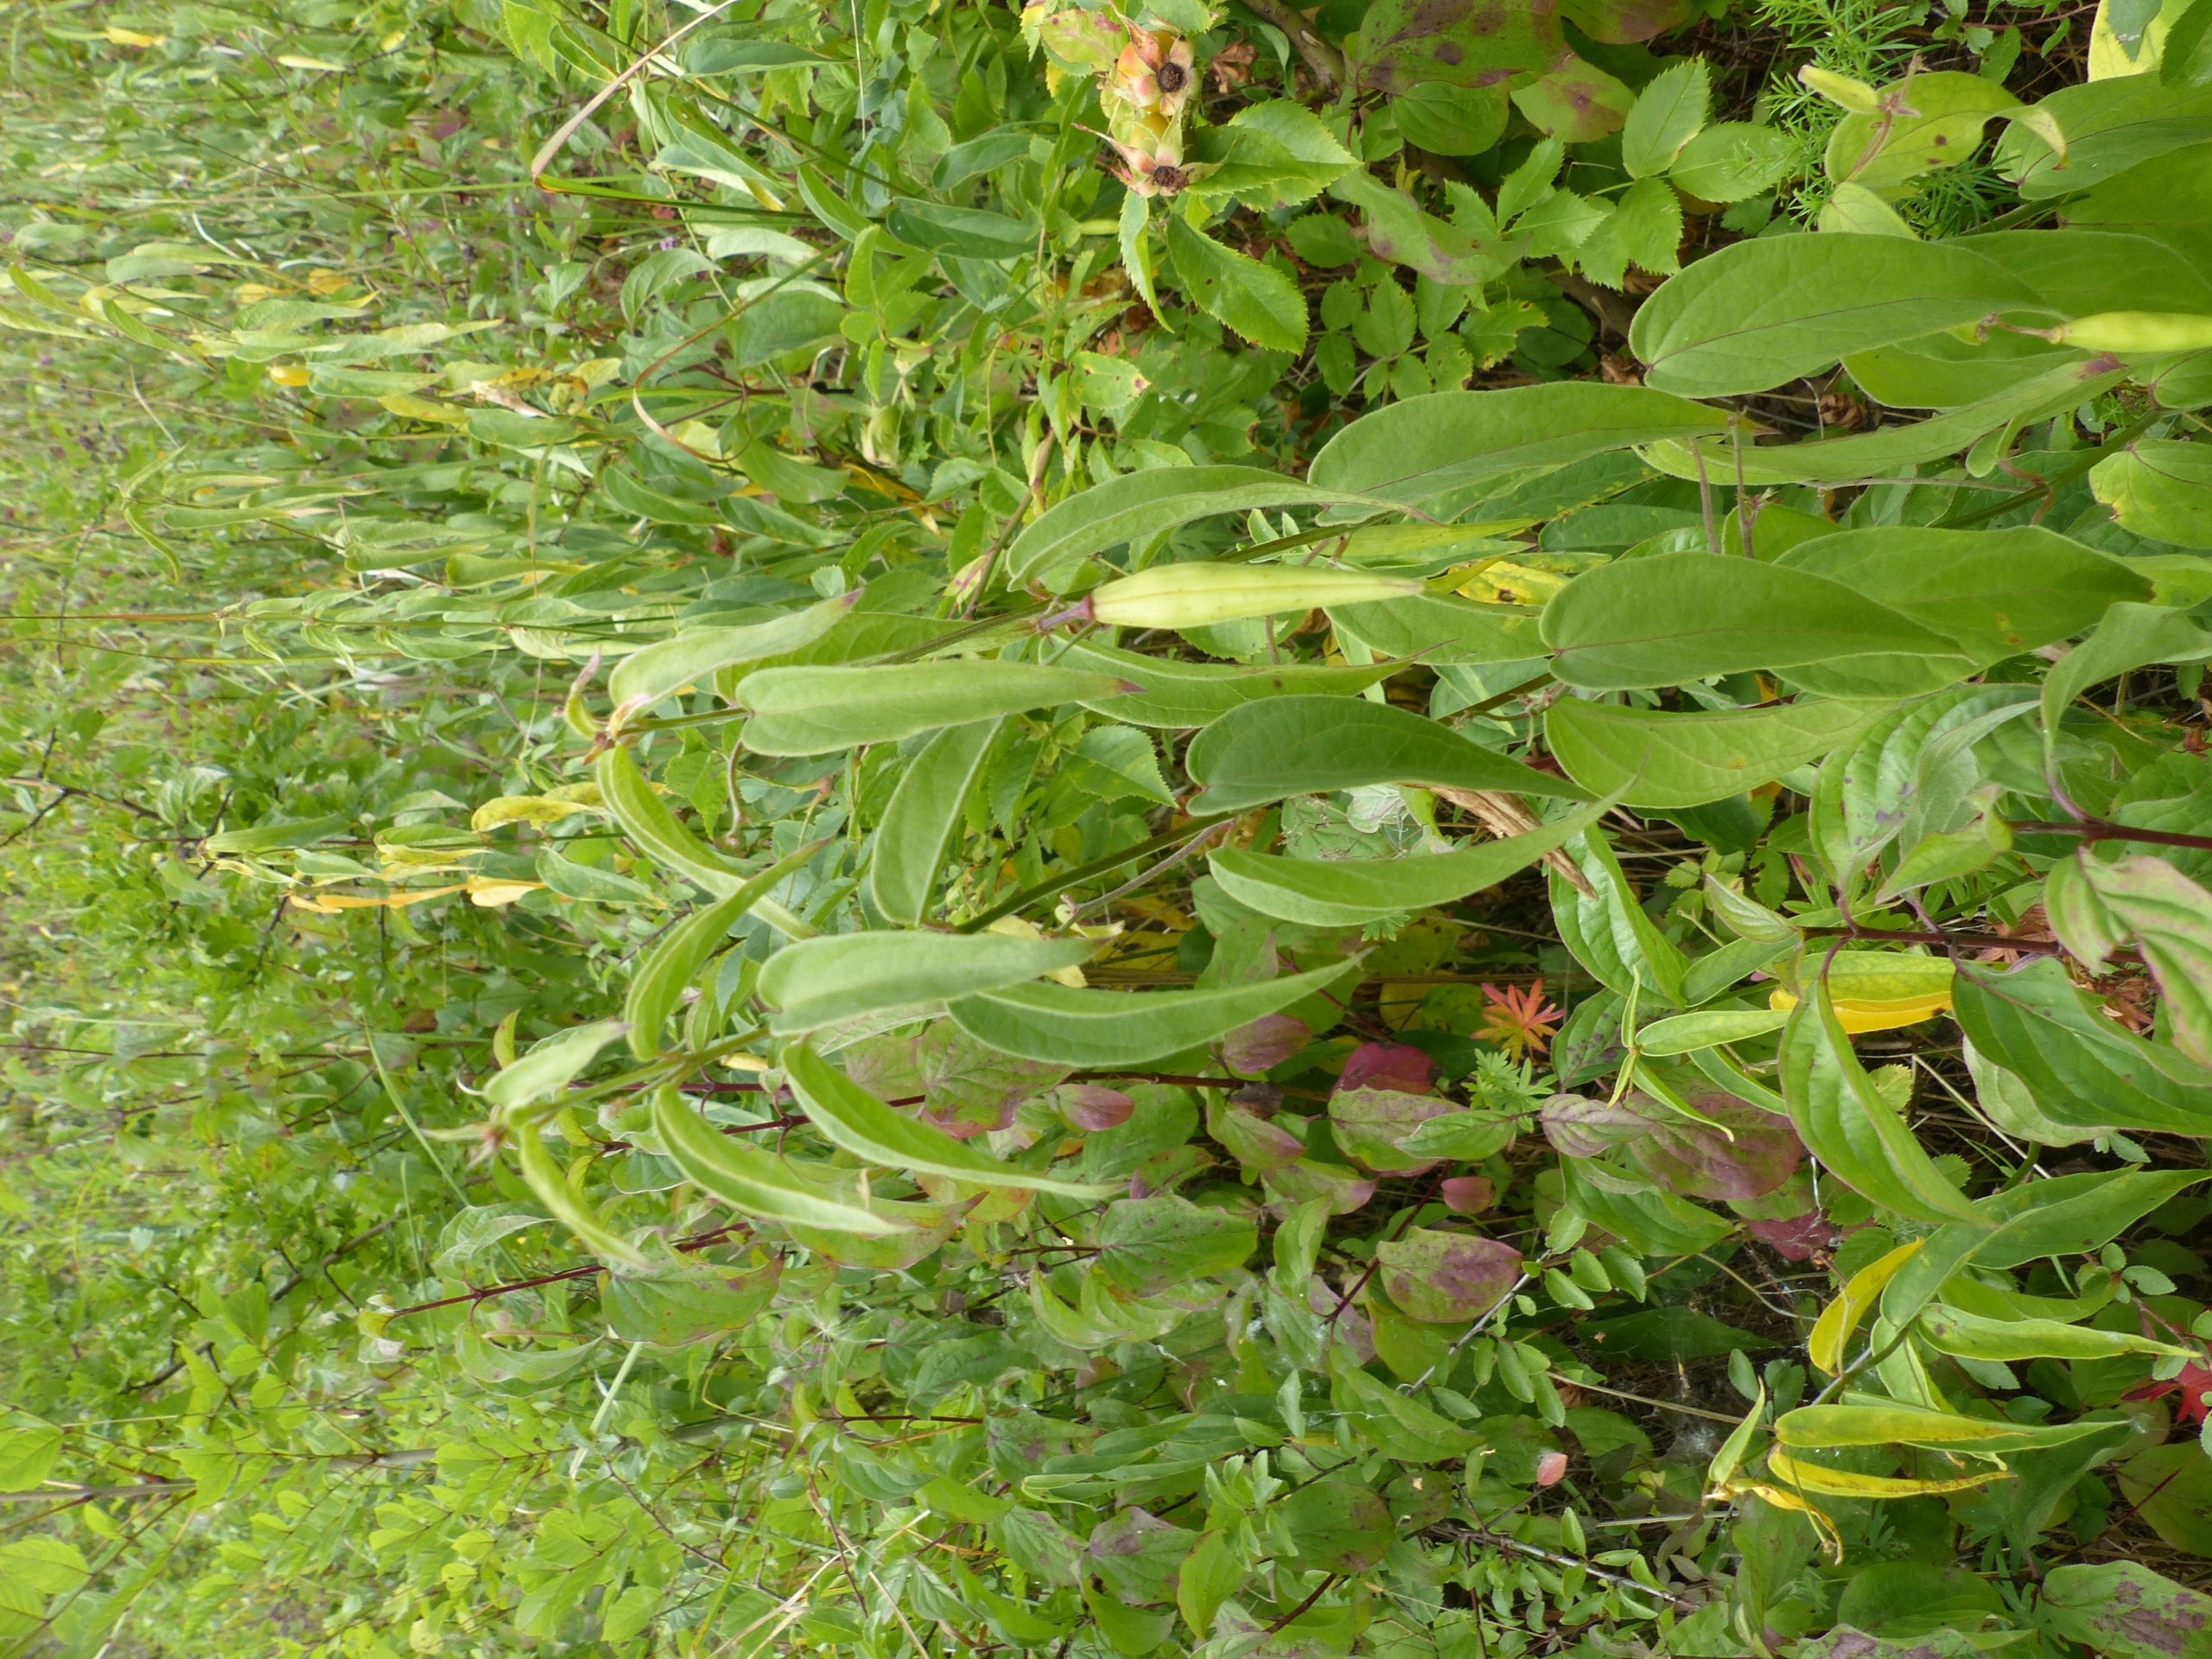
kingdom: Plantae
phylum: Tracheophyta
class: Magnoliopsida
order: Gentianales
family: Apocynaceae
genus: Vincetoxicum
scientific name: Vincetoxicum hirundinaria
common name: Svalerod
